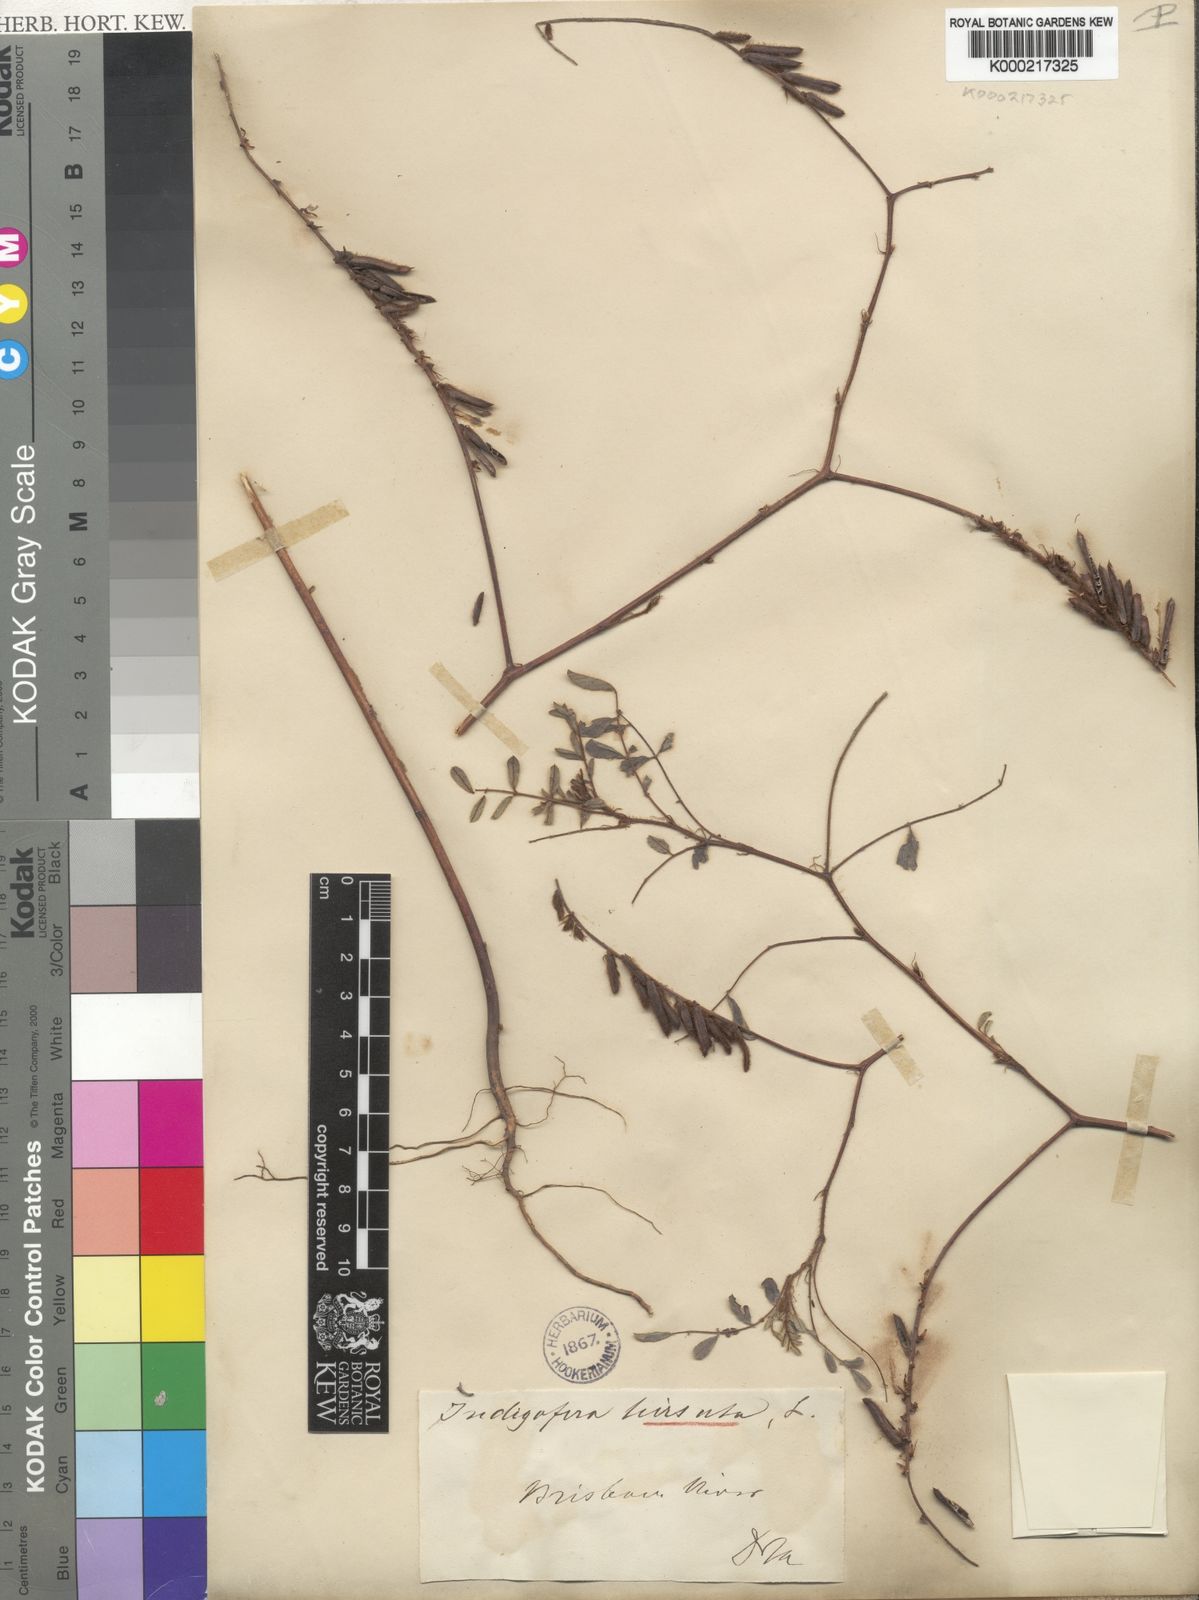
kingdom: Plantae
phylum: Tracheophyta
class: Magnoliopsida
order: Fabales
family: Fabaceae
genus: Indigofera
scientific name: Indigofera hirsuta
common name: Hairy indigo
